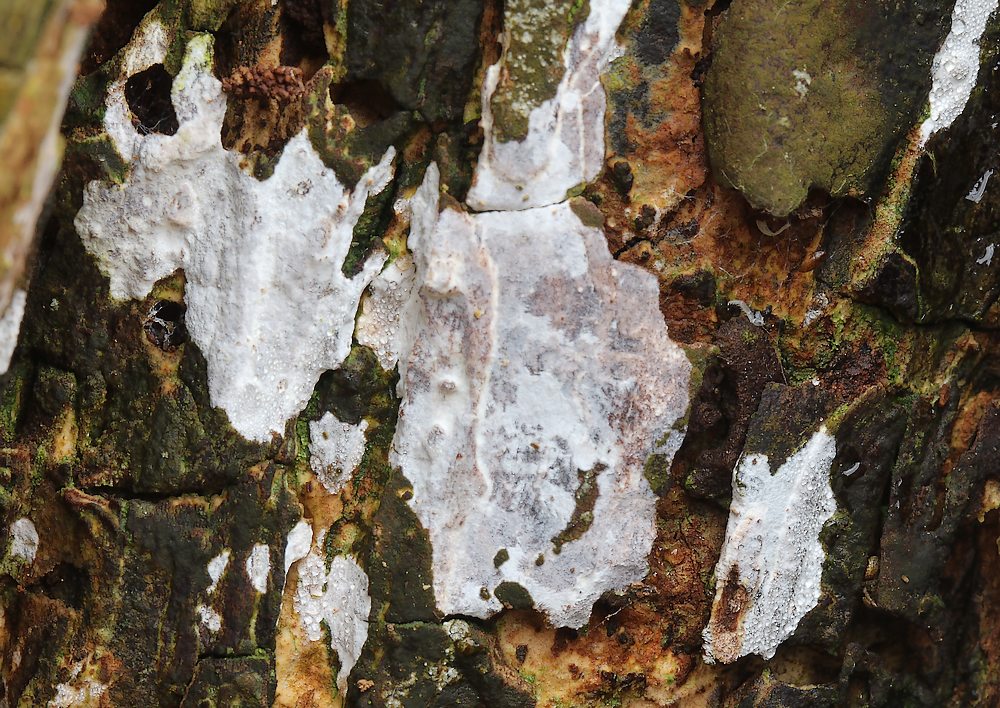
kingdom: Fungi
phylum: Basidiomycota
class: Agaricomycetes
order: Agaricales
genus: Dendrothele
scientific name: Dendrothele acerina
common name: navr-kalkplet
